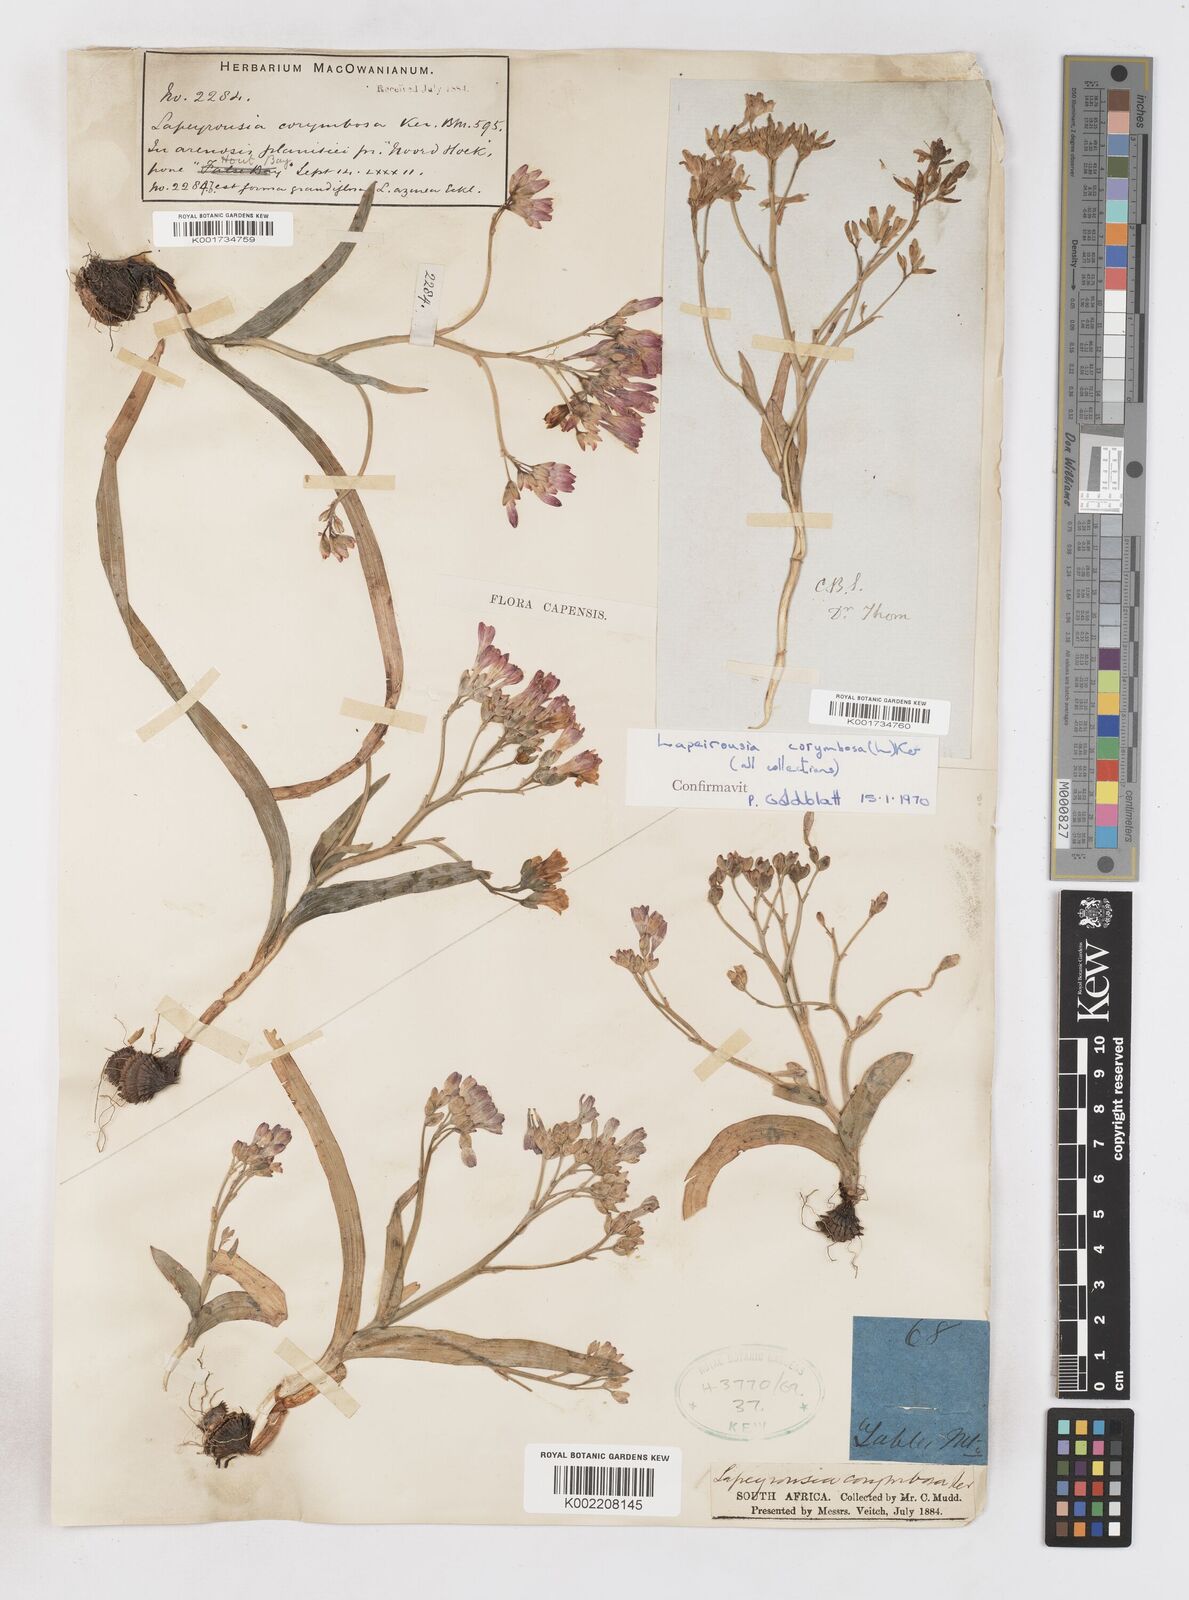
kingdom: Plantae
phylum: Tracheophyta
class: Liliopsida
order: Asparagales
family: Iridaceae
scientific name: Iridaceae
